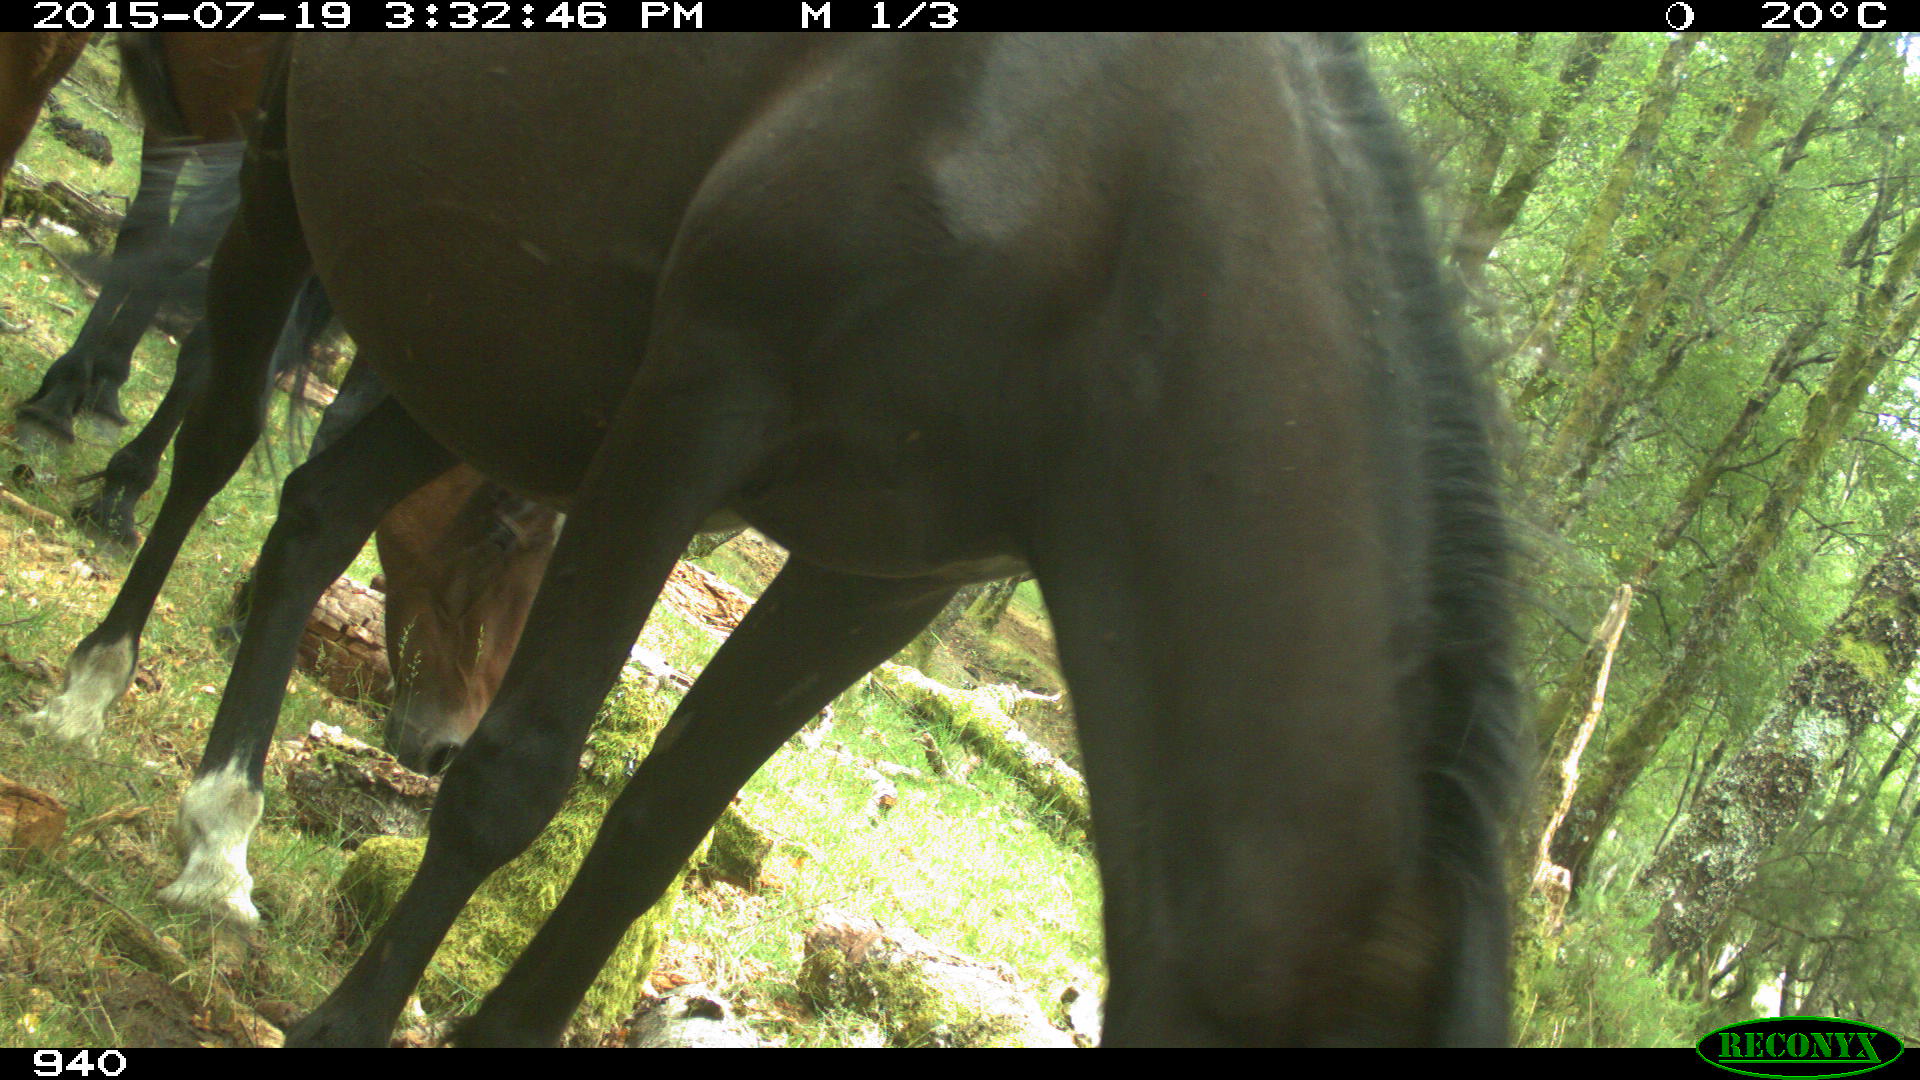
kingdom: Animalia
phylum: Chordata
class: Mammalia
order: Perissodactyla
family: Equidae
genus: Equus
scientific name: Equus caballus
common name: Horse
